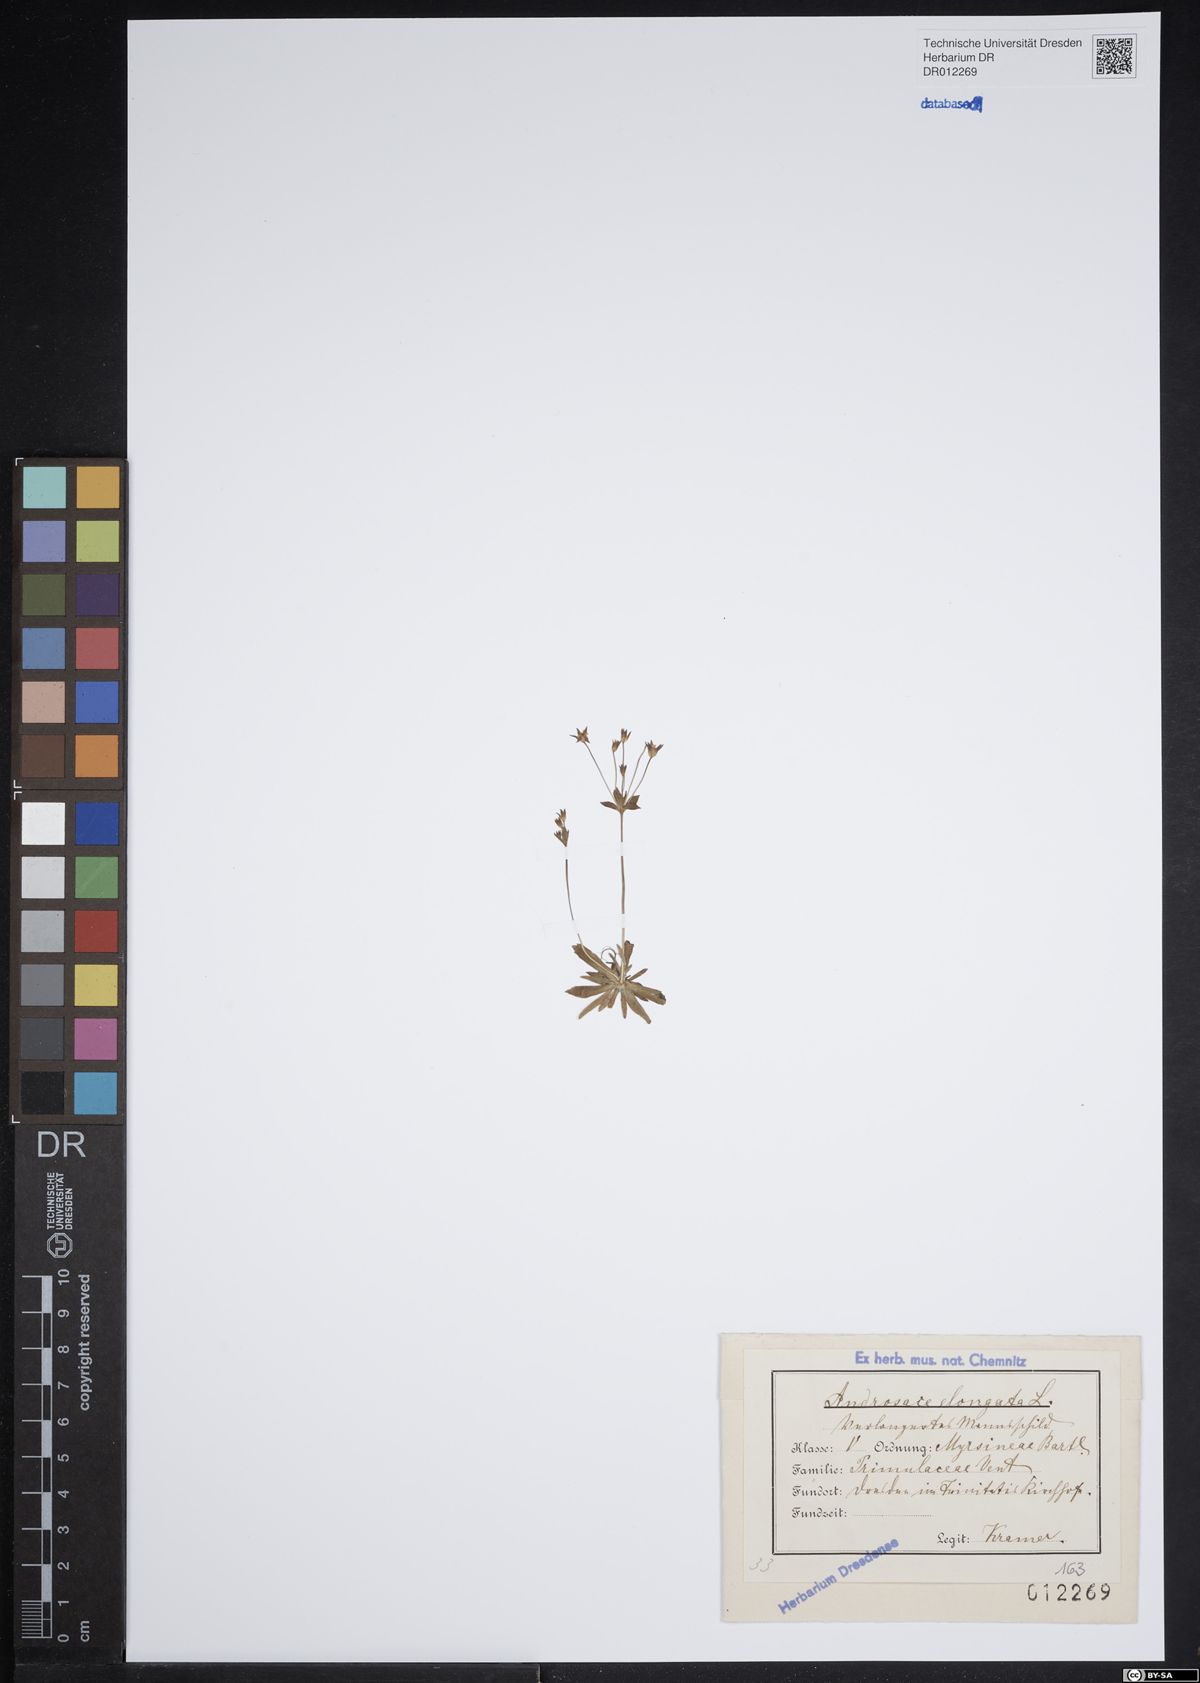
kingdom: Plantae
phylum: Tracheophyta
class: Magnoliopsida
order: Ericales
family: Primulaceae
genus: Androsace
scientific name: Androsace elongata
